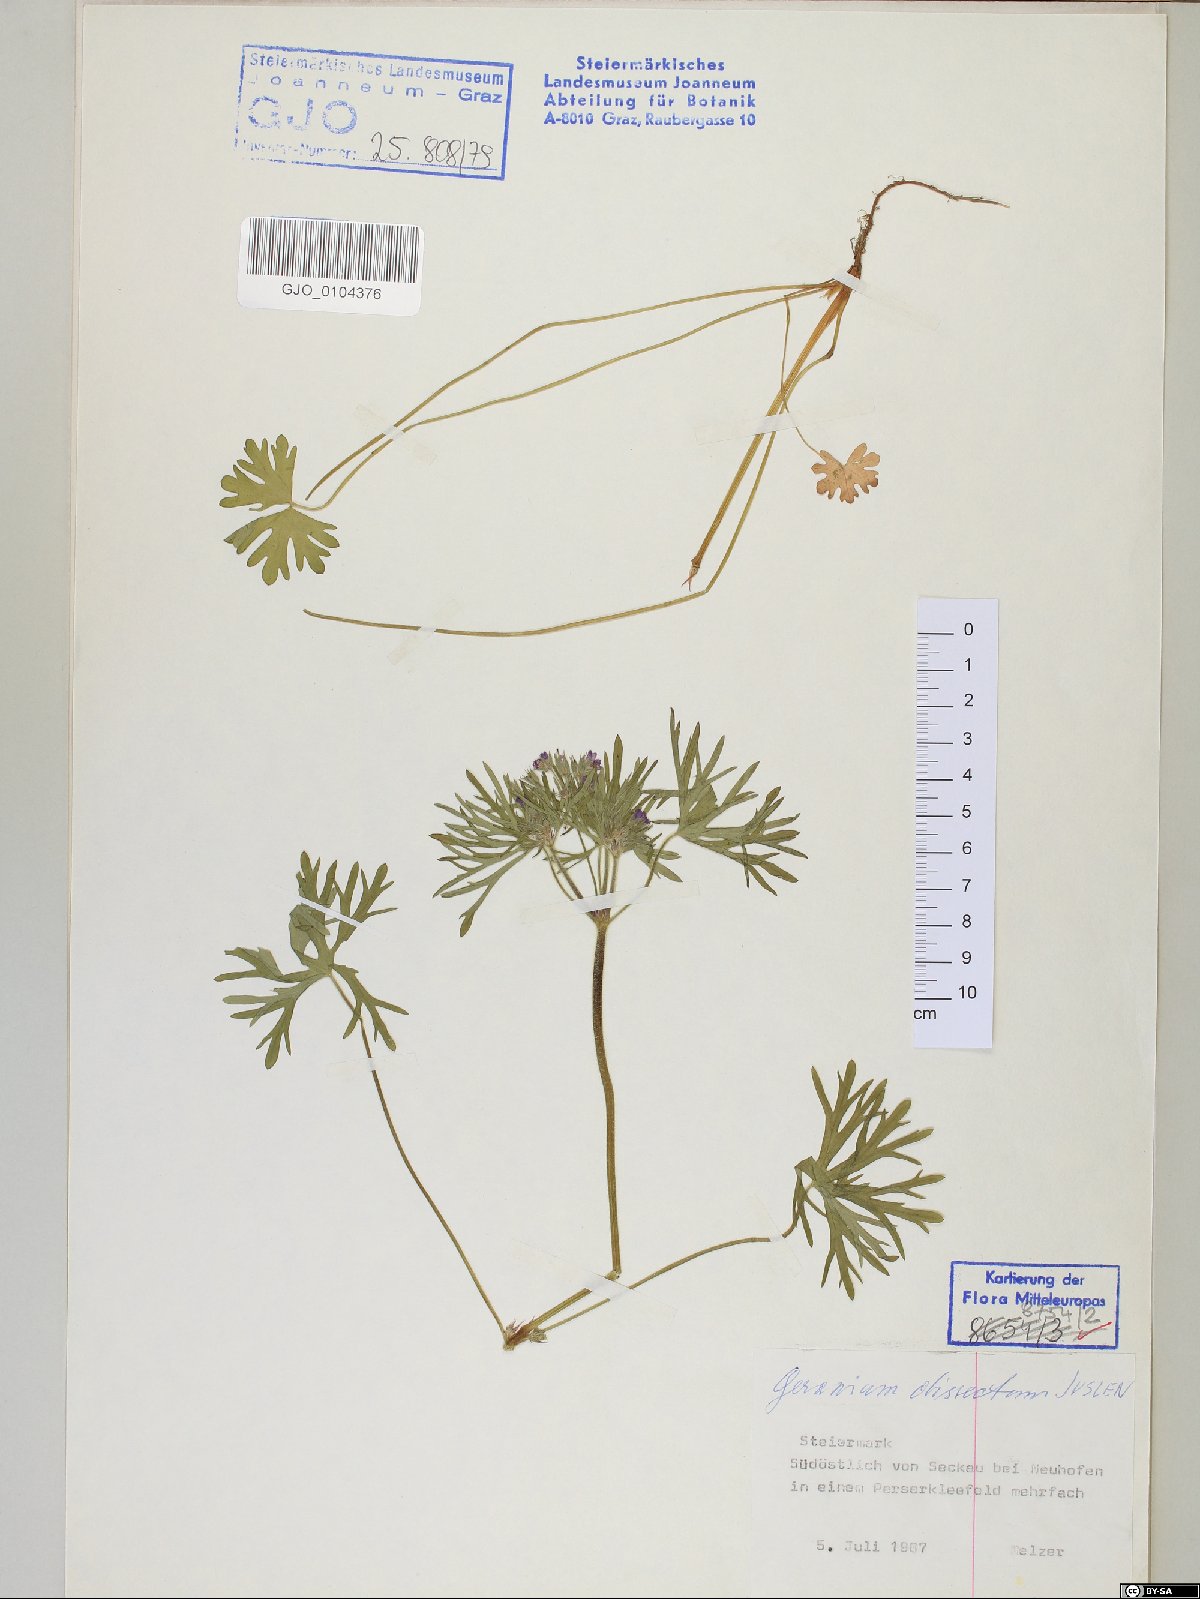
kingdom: Plantae
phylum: Tracheophyta
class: Magnoliopsida
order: Geraniales
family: Geraniaceae
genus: Geranium
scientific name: Geranium dissectum
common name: Cut-leaved crane's-bill
